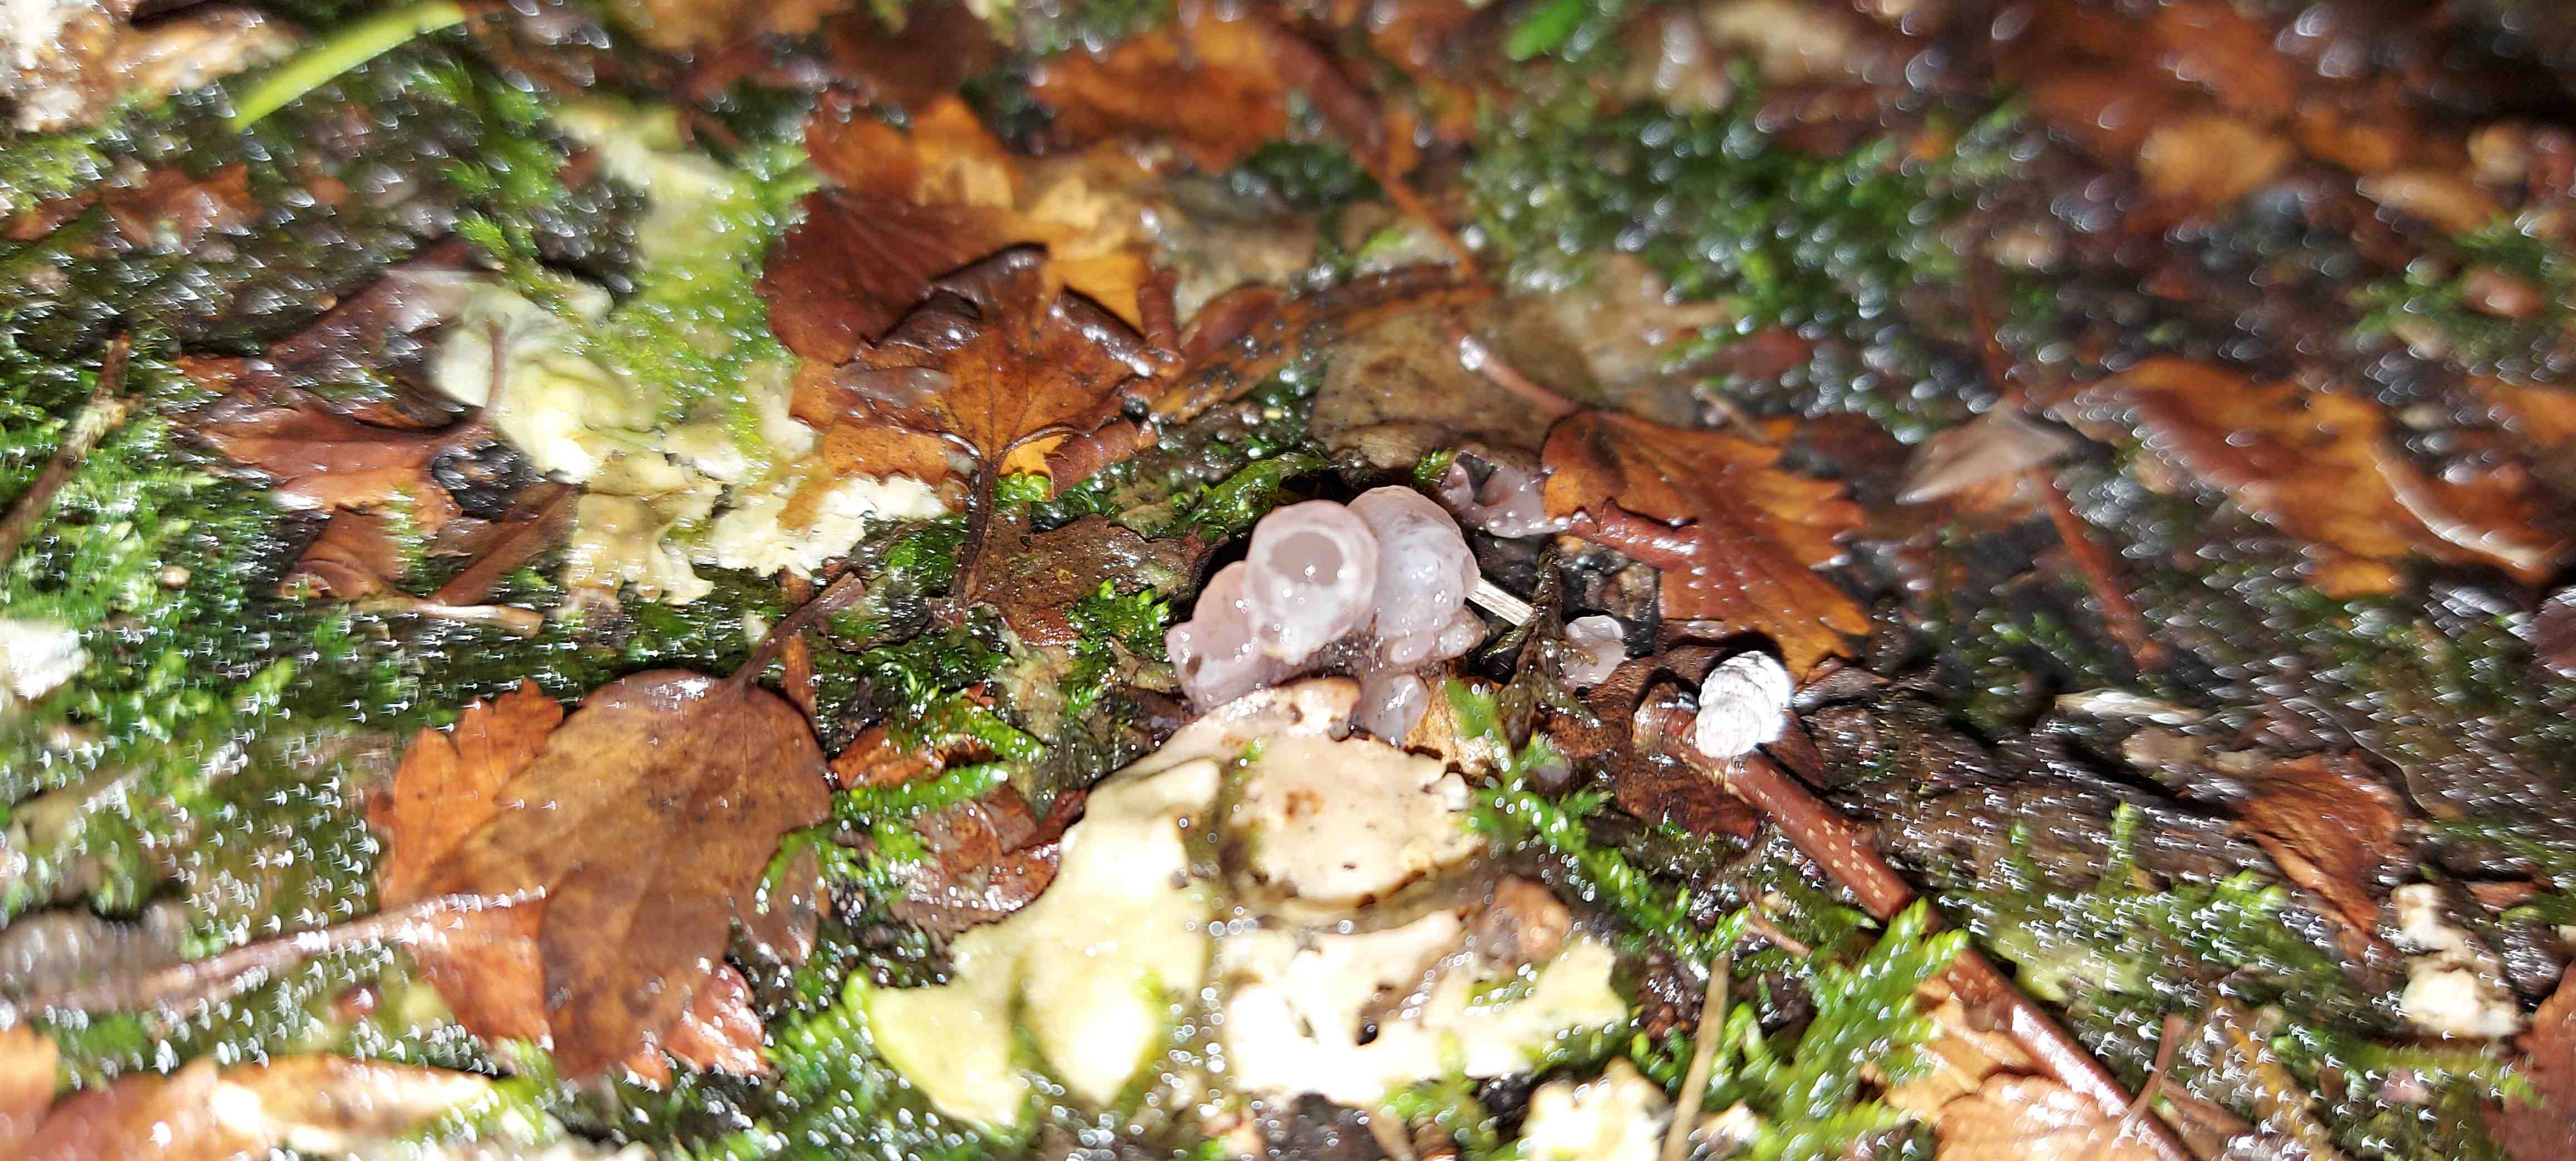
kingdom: Fungi
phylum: Ascomycota
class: Leotiomycetes
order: Helotiales
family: Gelatinodiscaceae
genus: Ascocoryne
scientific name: Ascocoryne sarcoides
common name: rødlilla sejskive
